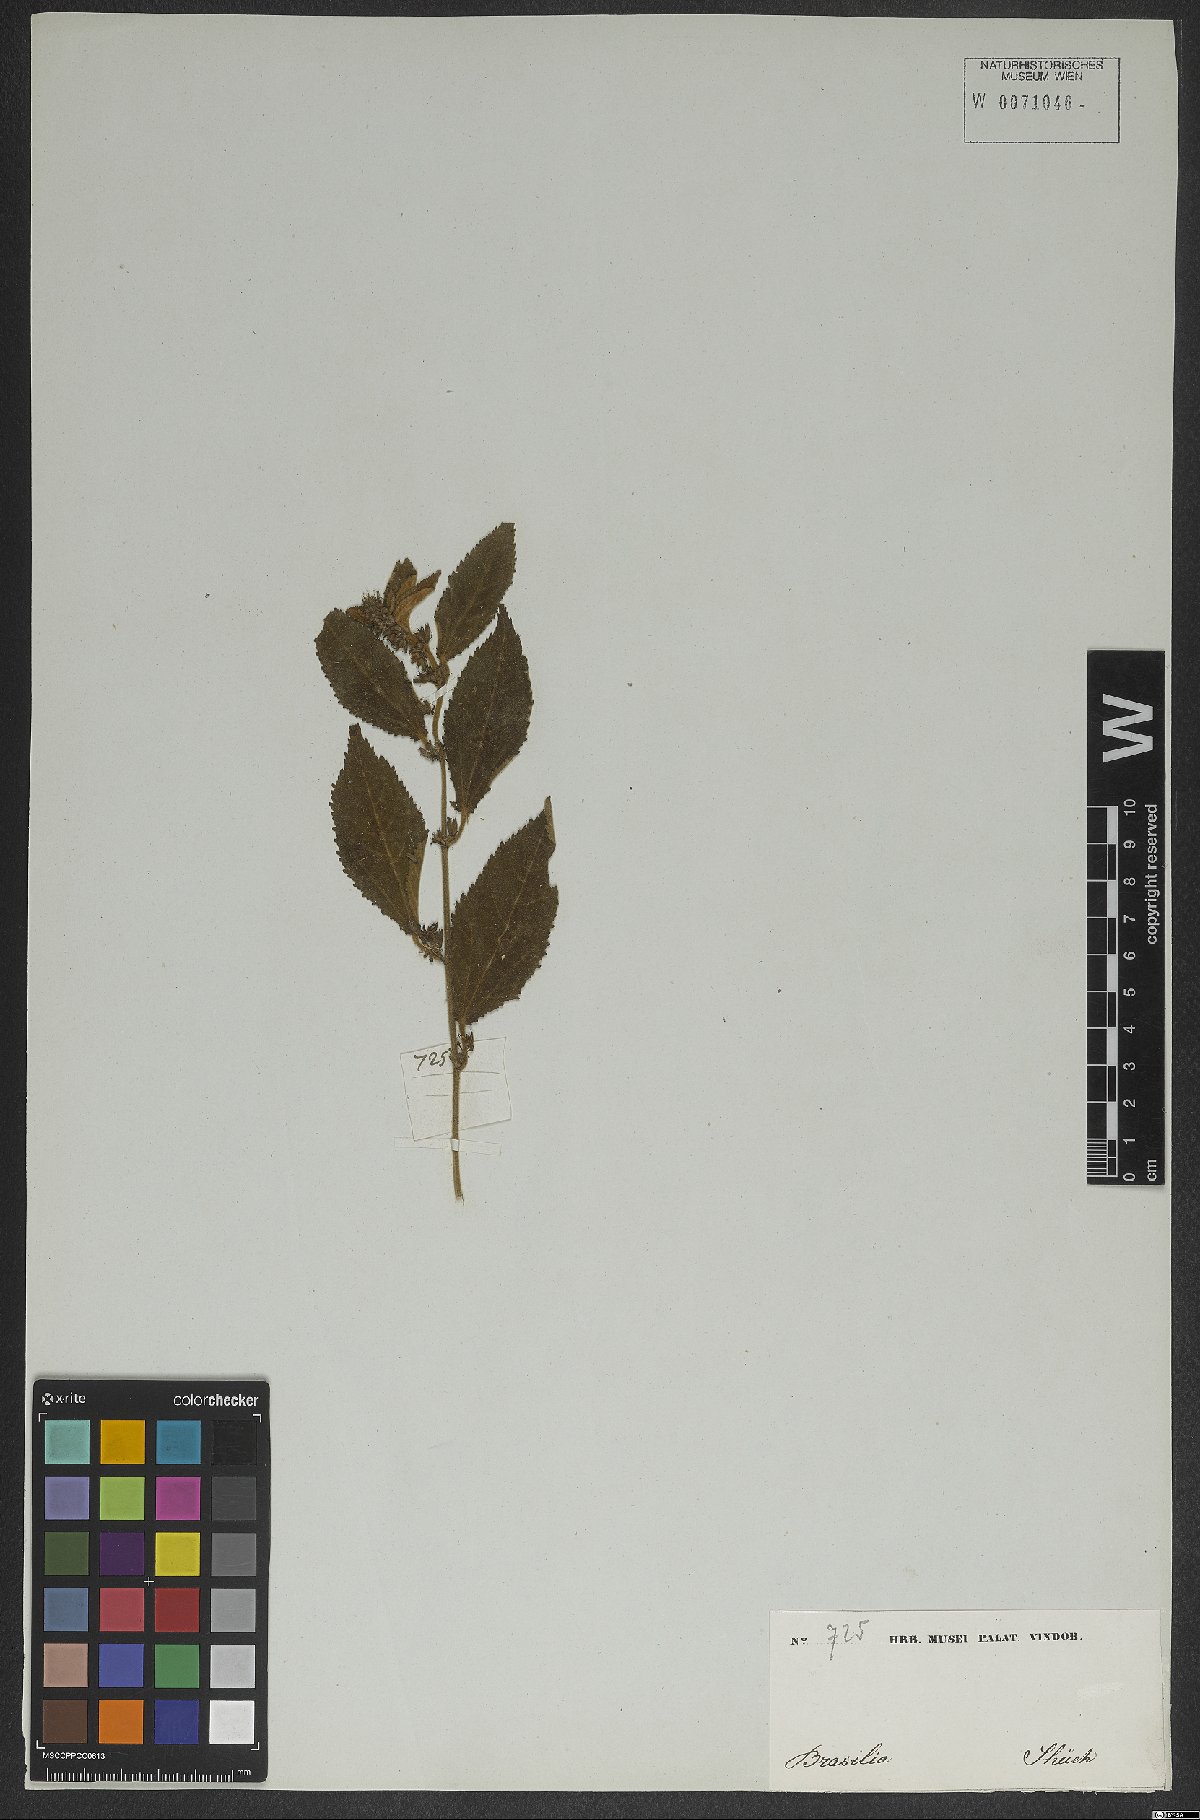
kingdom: Plantae
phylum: Tracheophyta
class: Magnoliopsida
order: Malvales
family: Malvaceae
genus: Triumfetta
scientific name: Triumfetta
